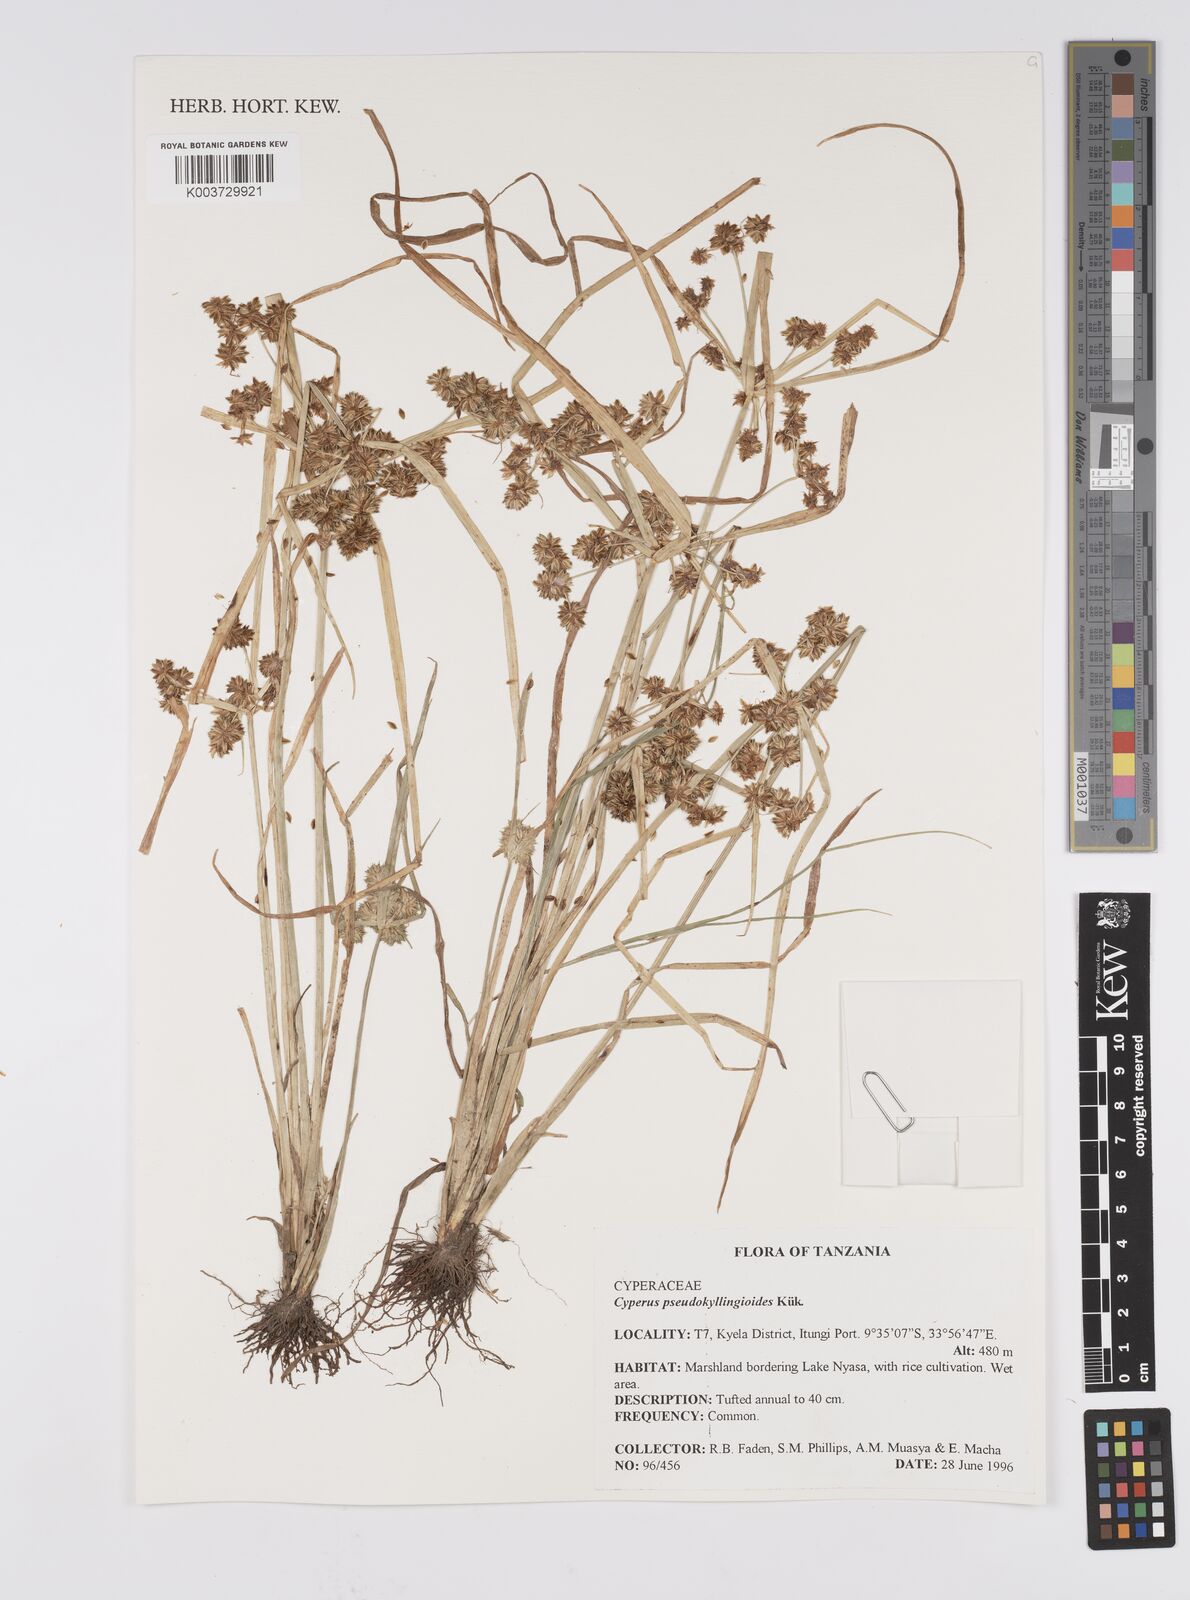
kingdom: Plantae
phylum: Tracheophyta
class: Liliopsida
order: Poales
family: Cyperaceae
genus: Cyperus
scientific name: Cyperus pseudokyllingioides
